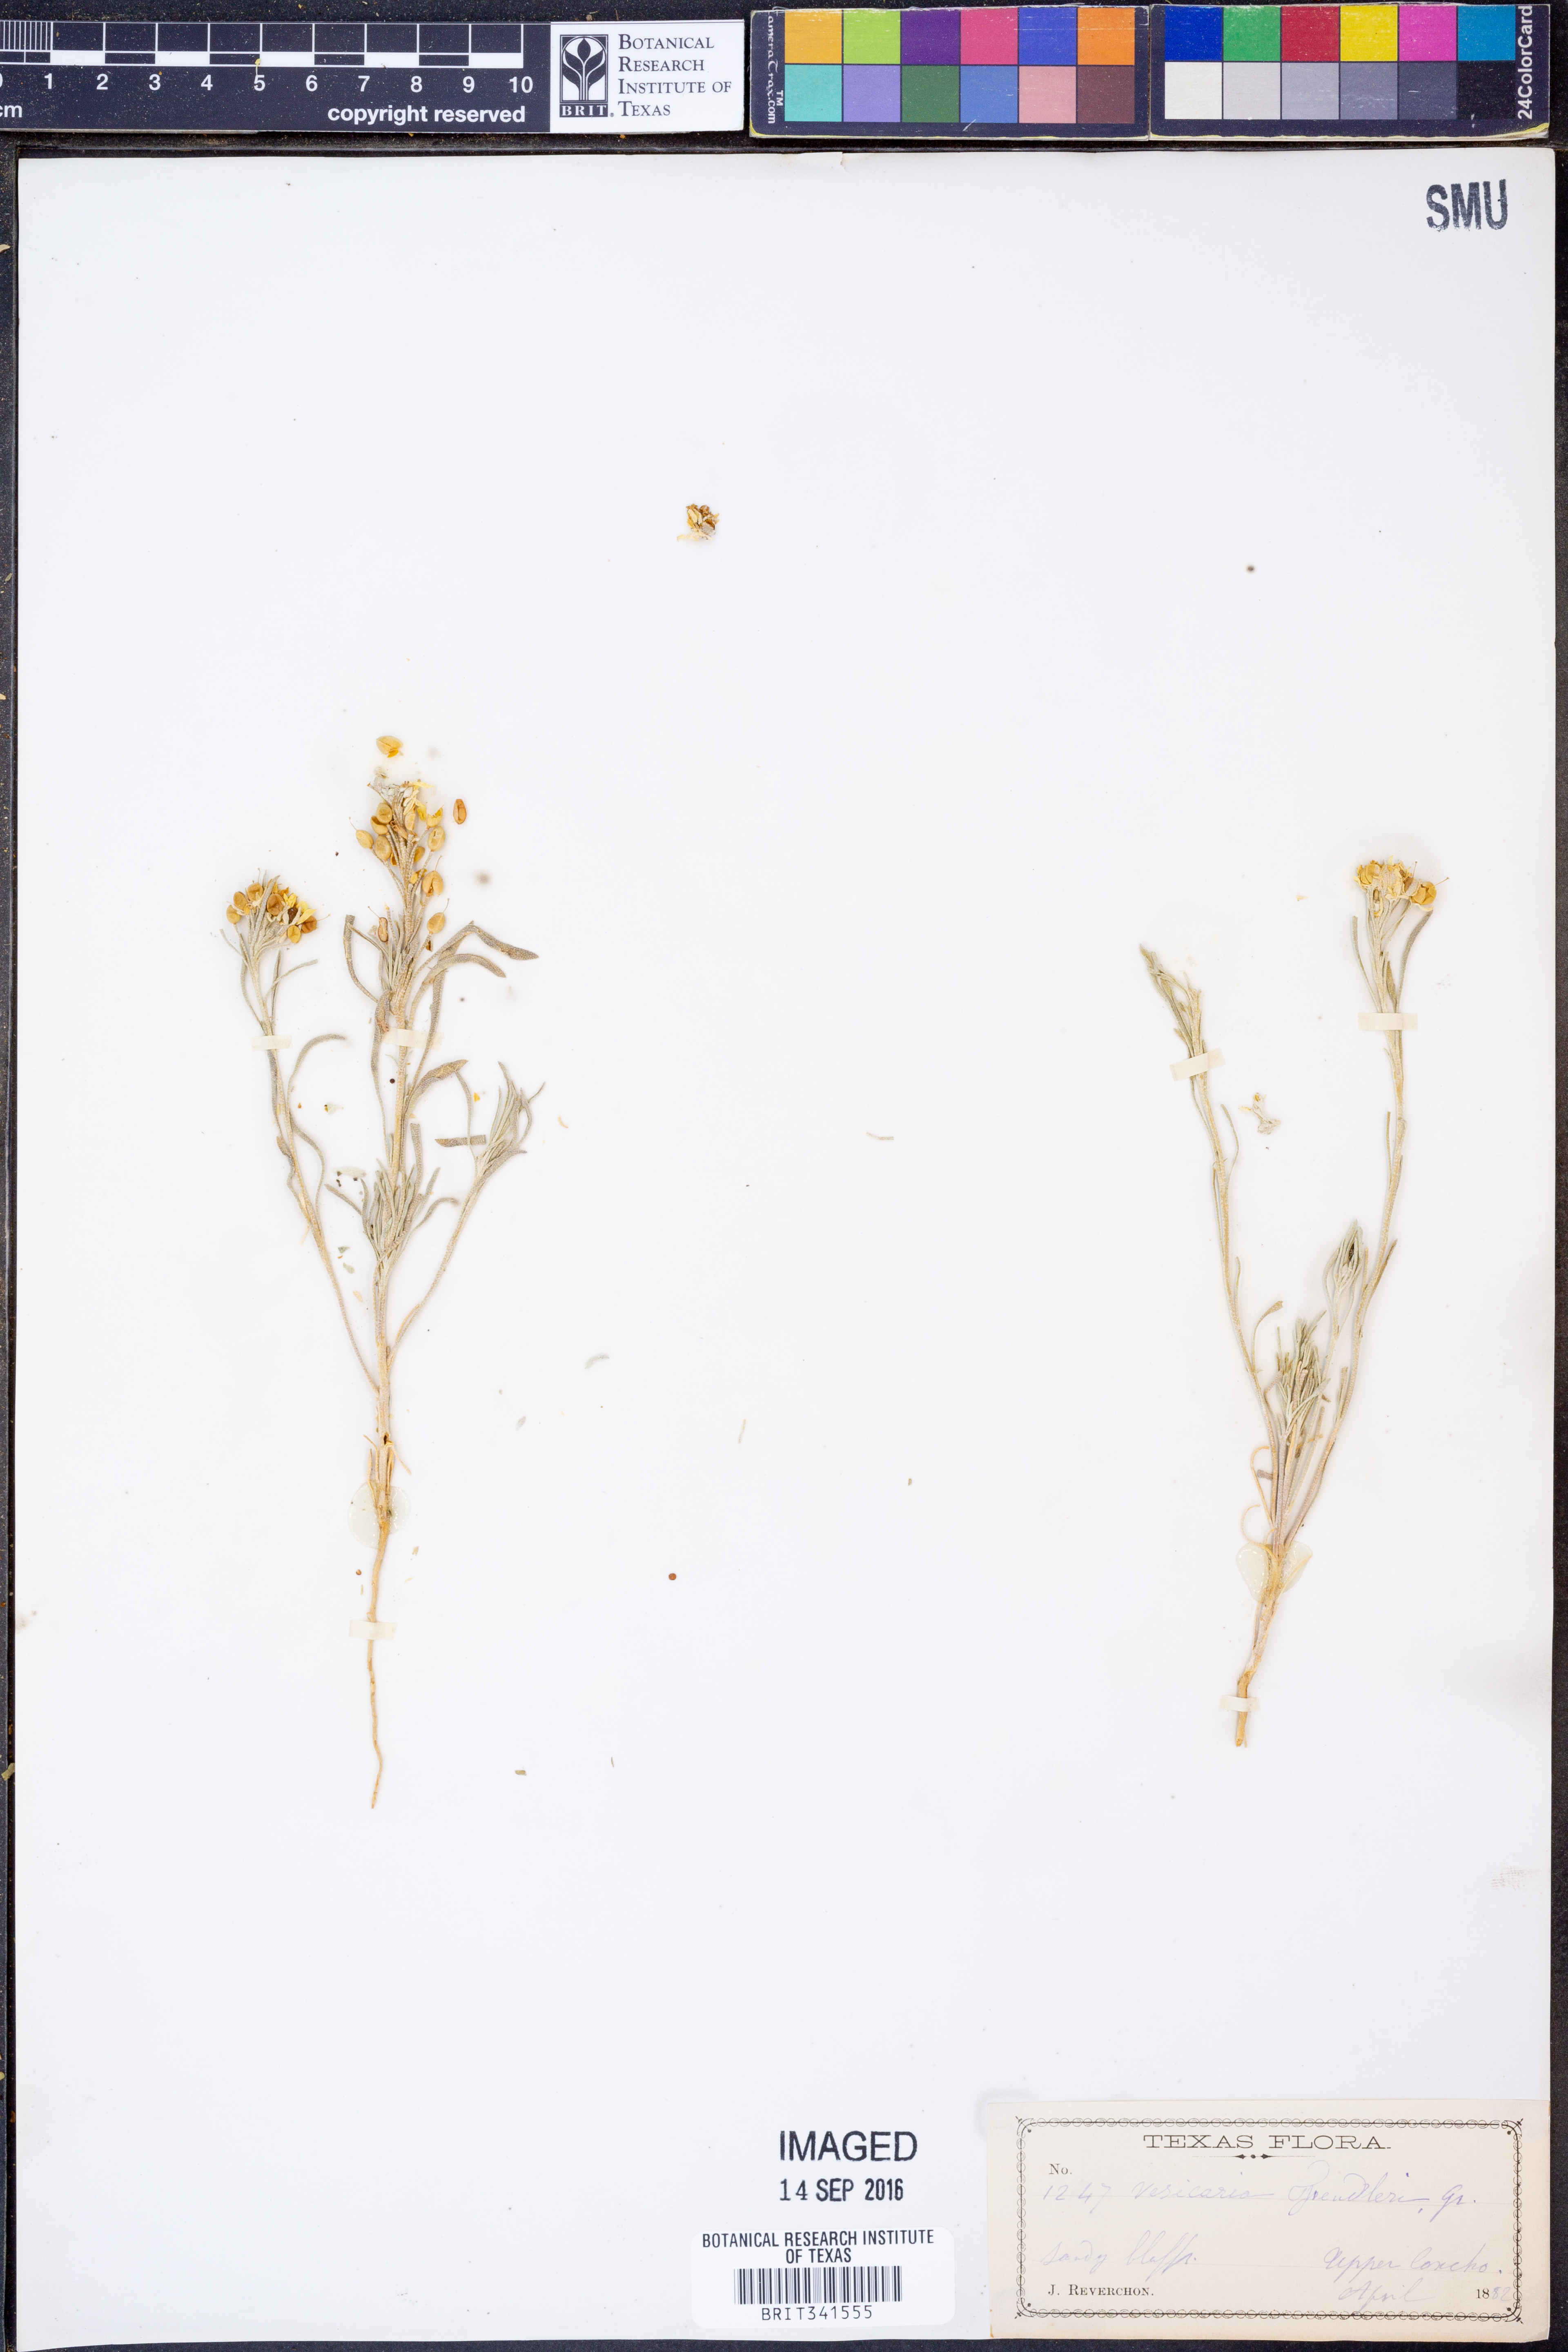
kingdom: Plantae
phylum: Tracheophyta
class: Magnoliopsida
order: Brassicales
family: Brassicaceae
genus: Physaria
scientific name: Physaria fendleri
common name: Fendler's bladderpod
